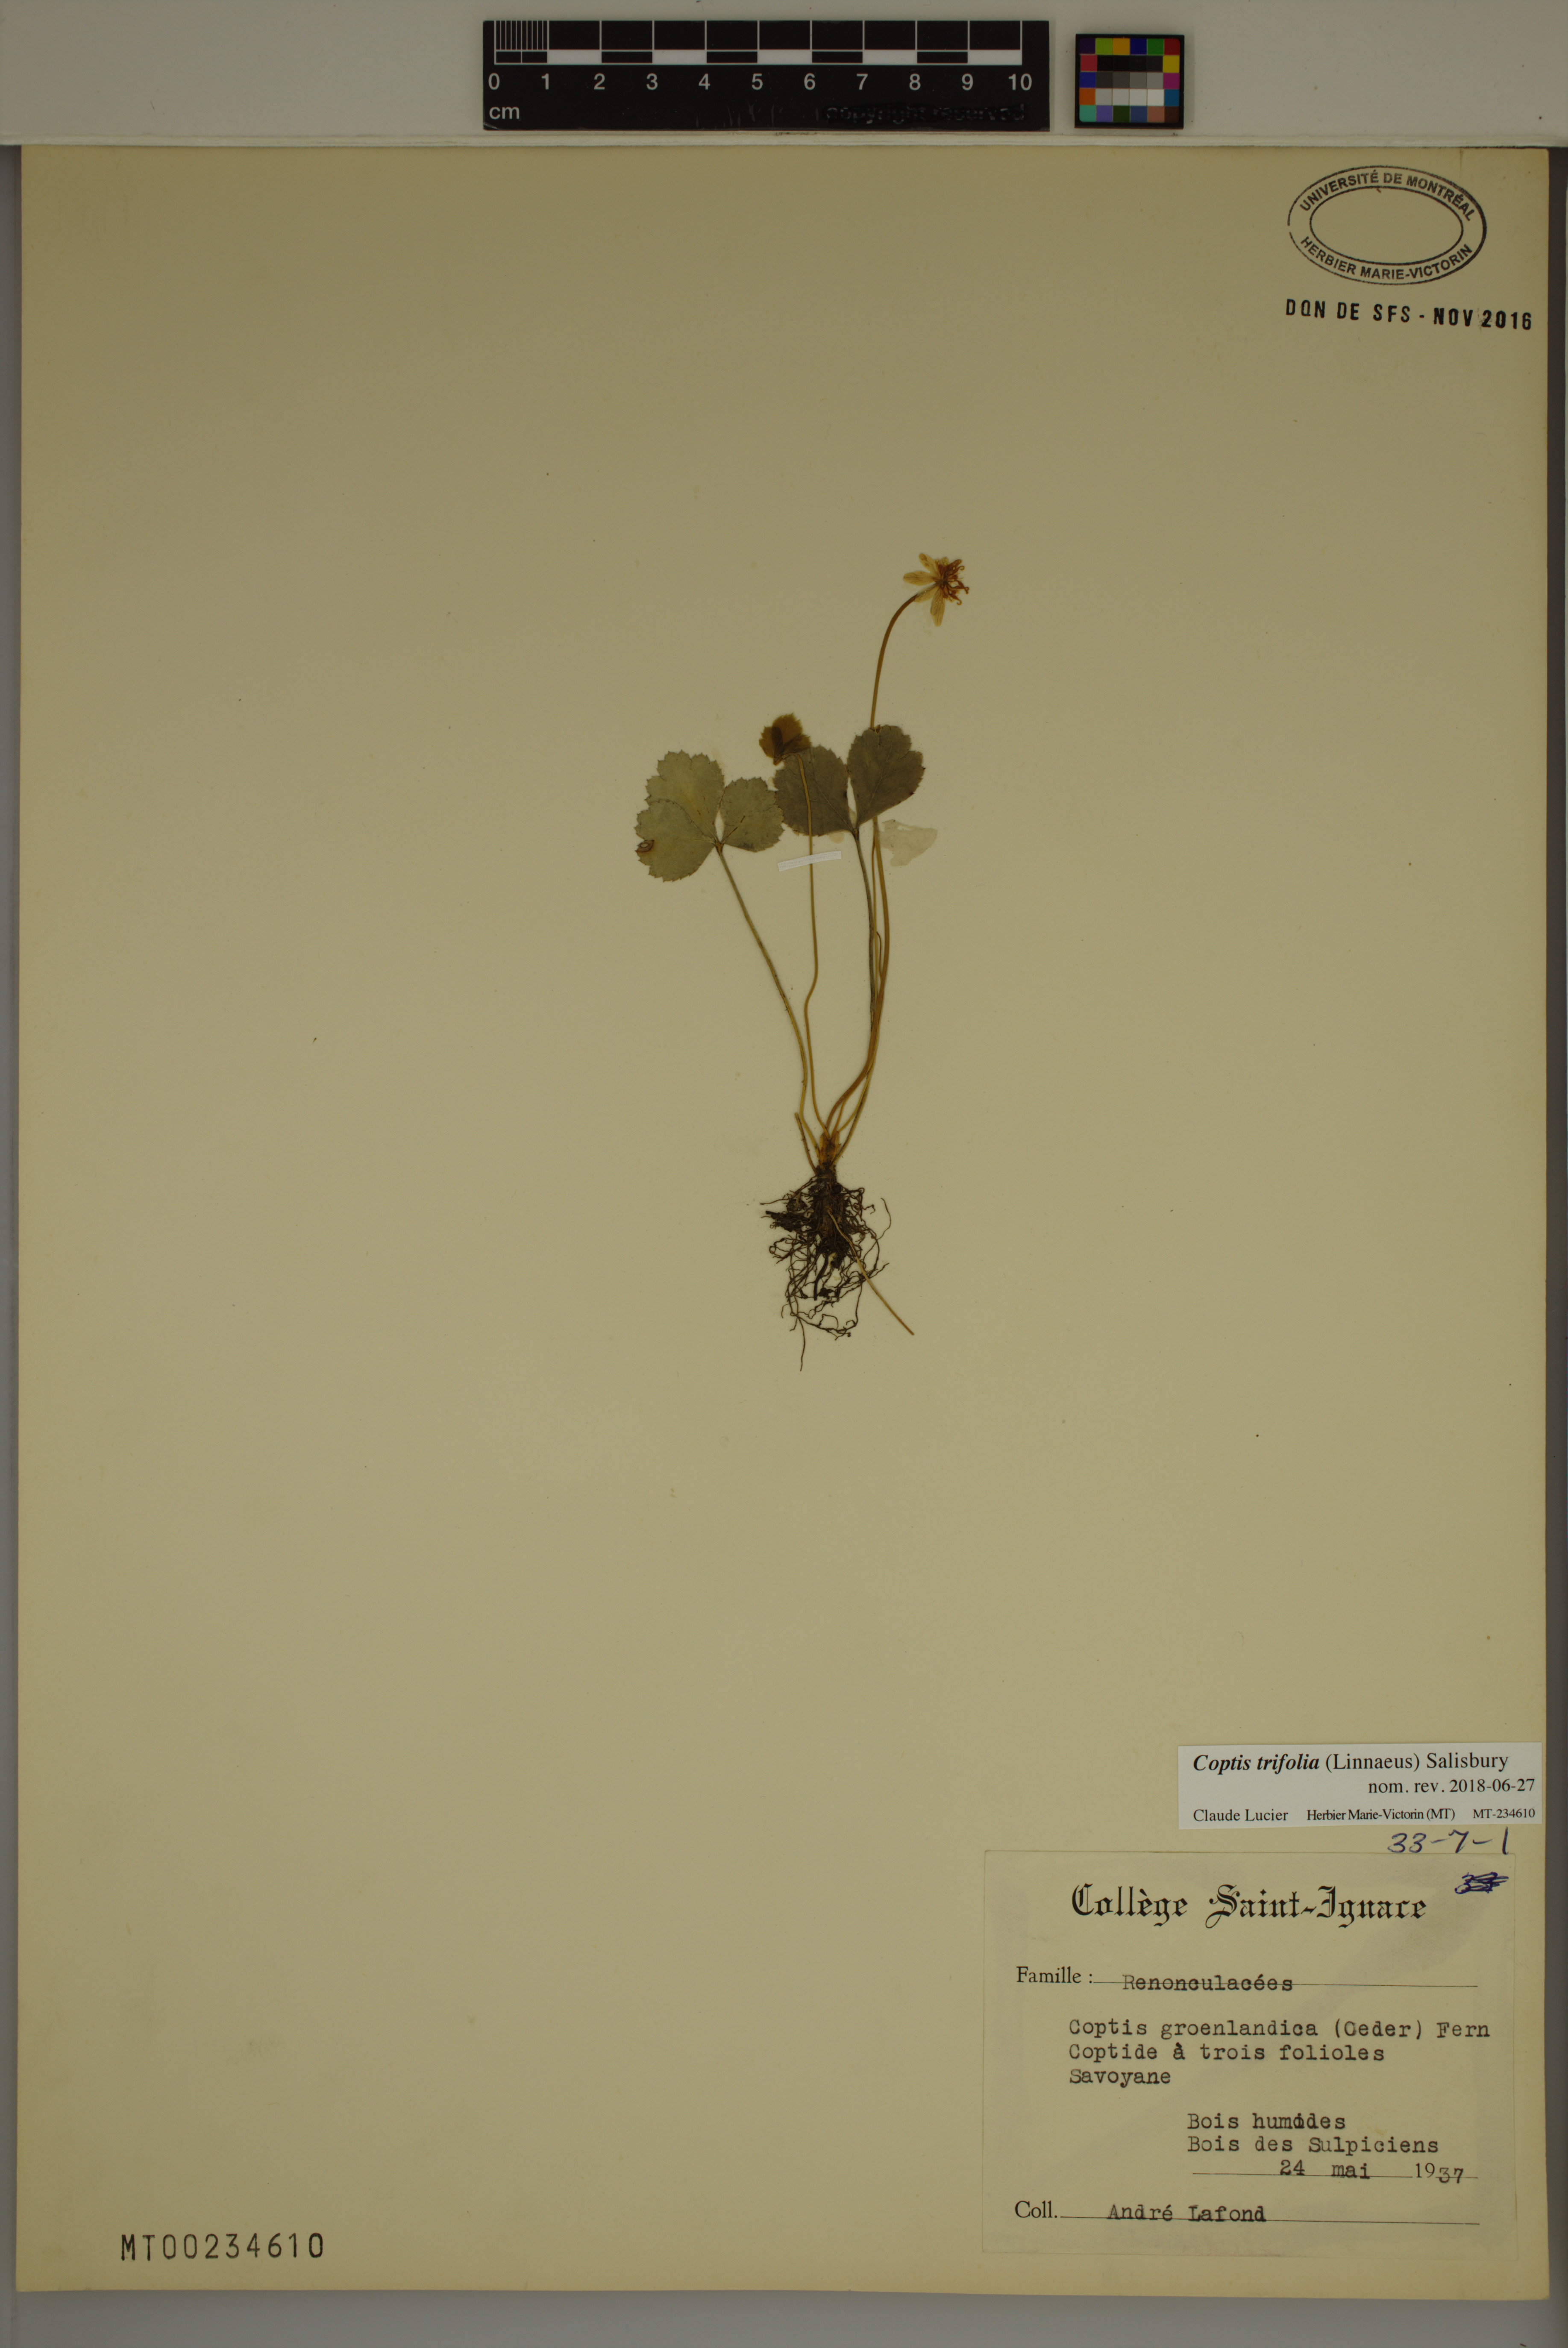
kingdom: Plantae
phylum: Tracheophyta
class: Magnoliopsida
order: Ranunculales
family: Ranunculaceae
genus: Coptis
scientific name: Coptis trifolia
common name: Canker-root
